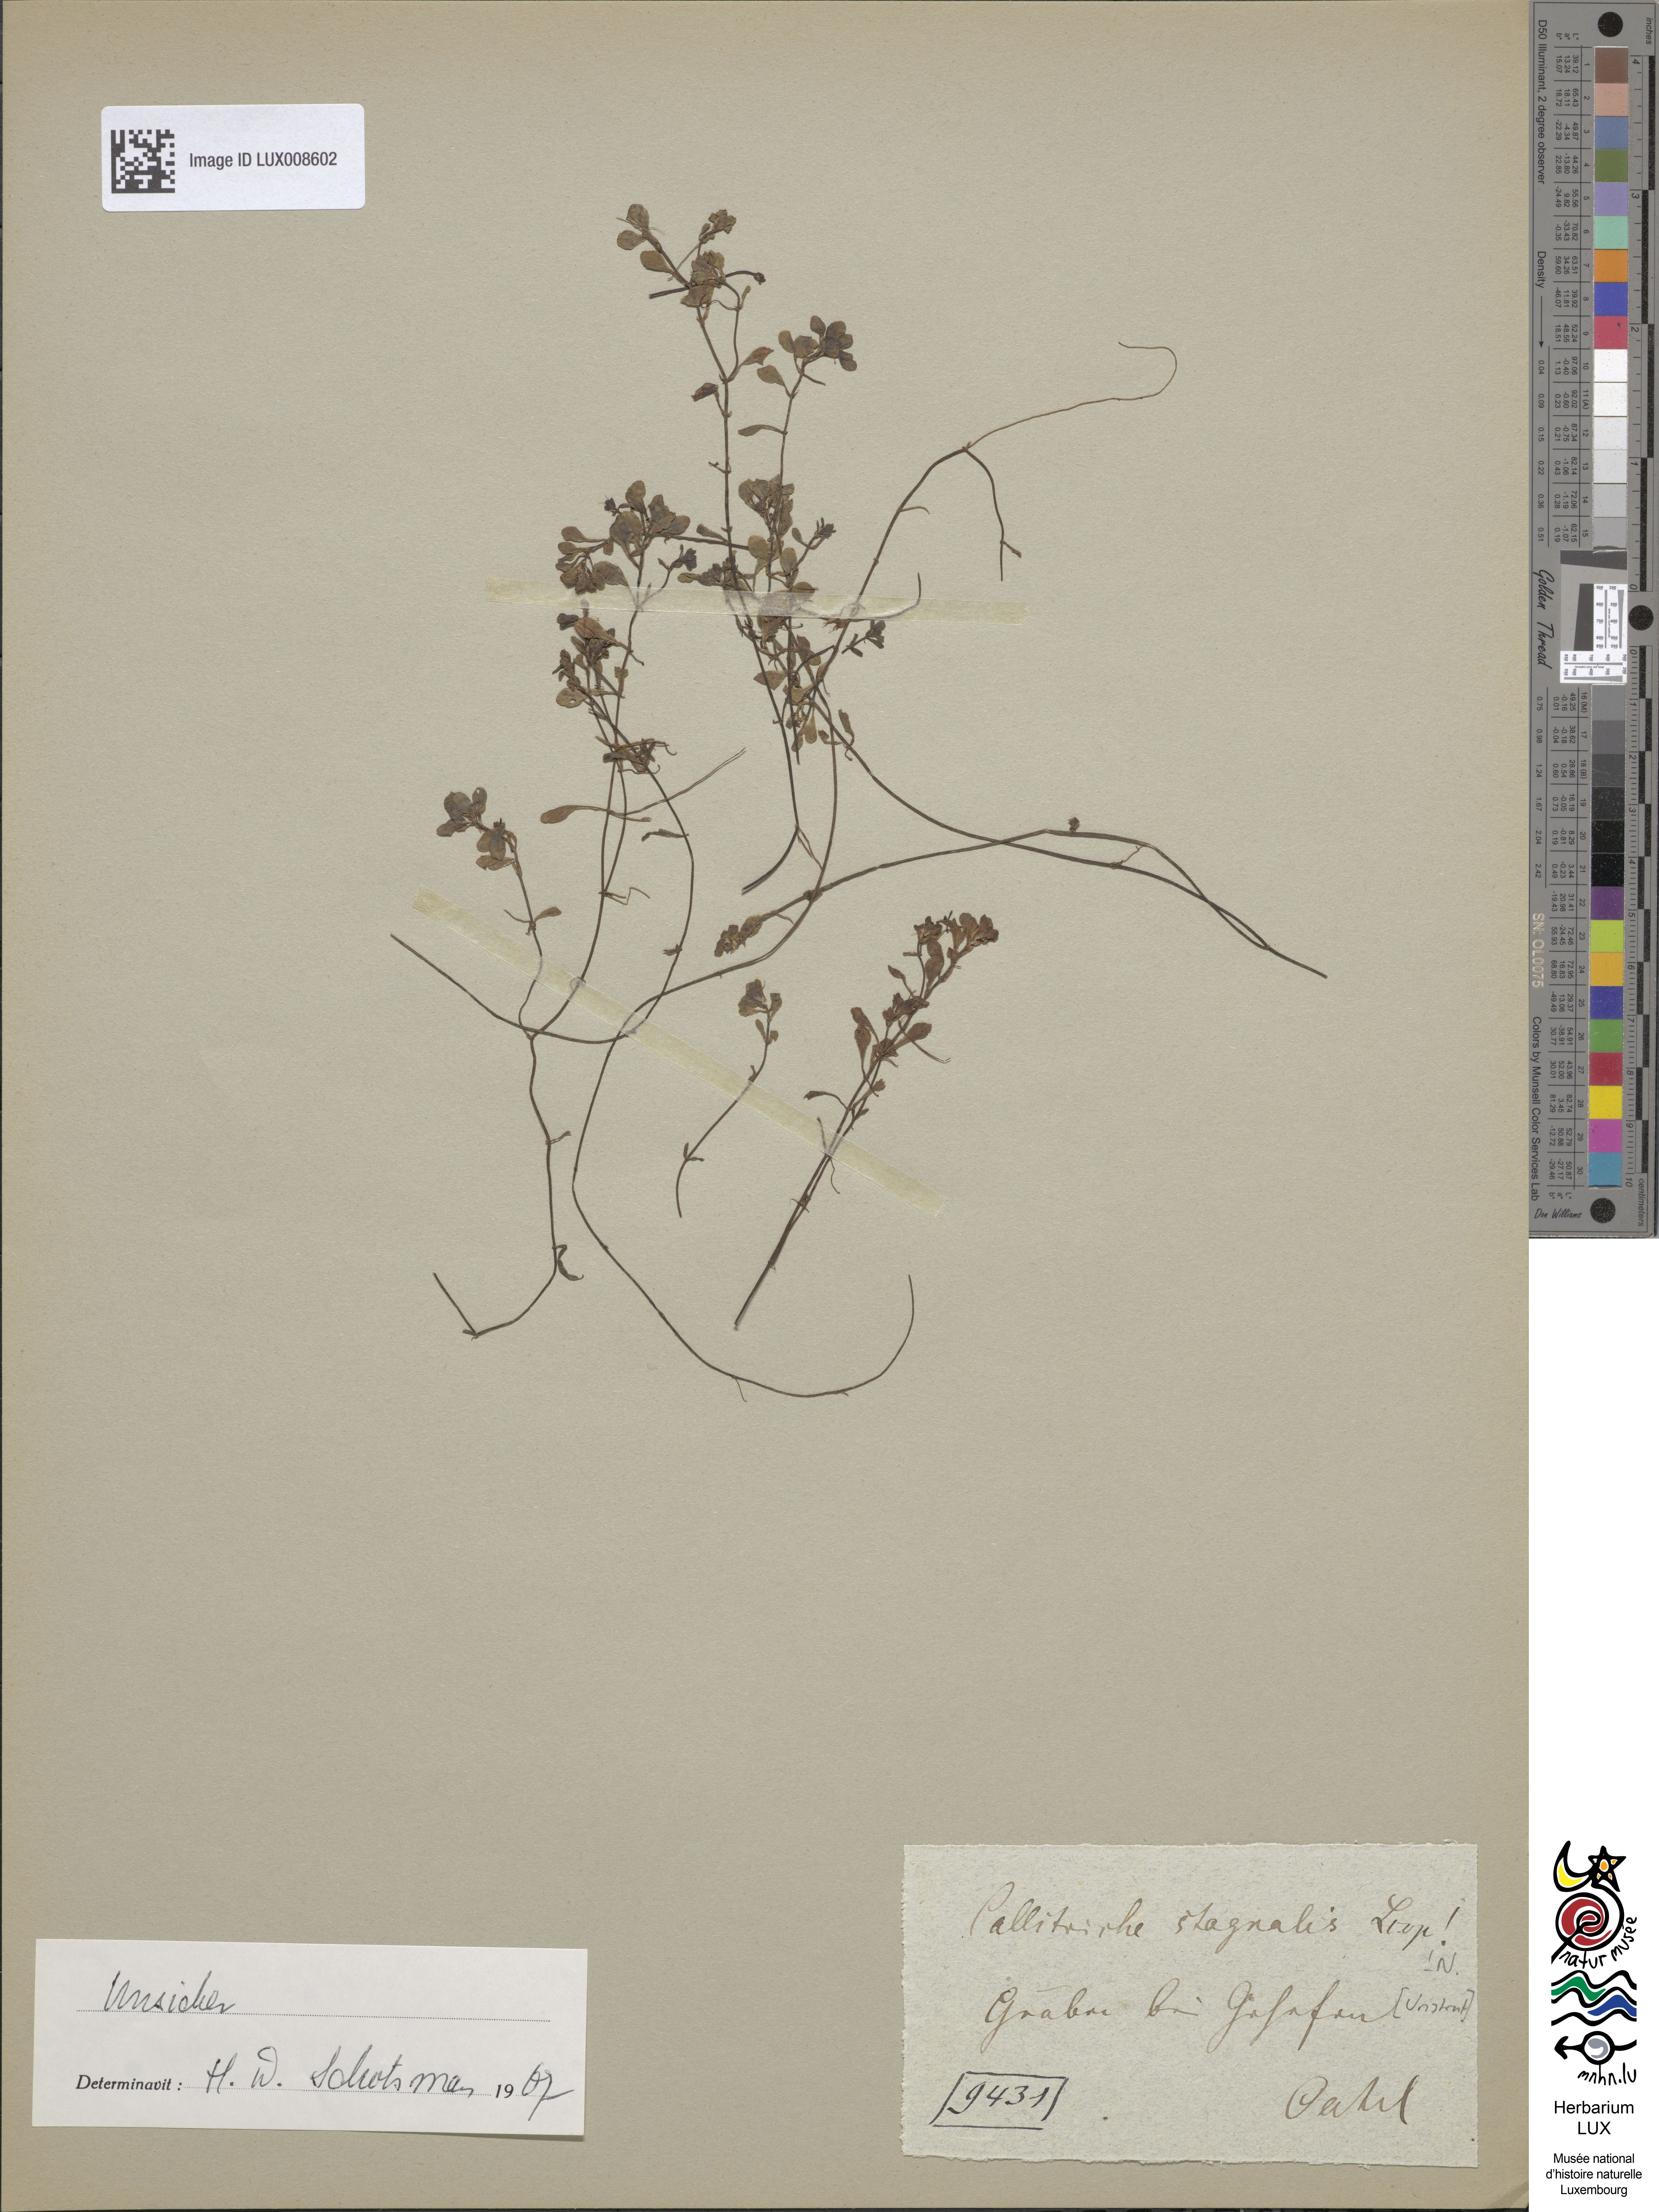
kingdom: Plantae
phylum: Tracheophyta
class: Magnoliopsida
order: Lamiales
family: Plantaginaceae
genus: Callitriche
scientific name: Callitriche stagnalis
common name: Common water-starwort
